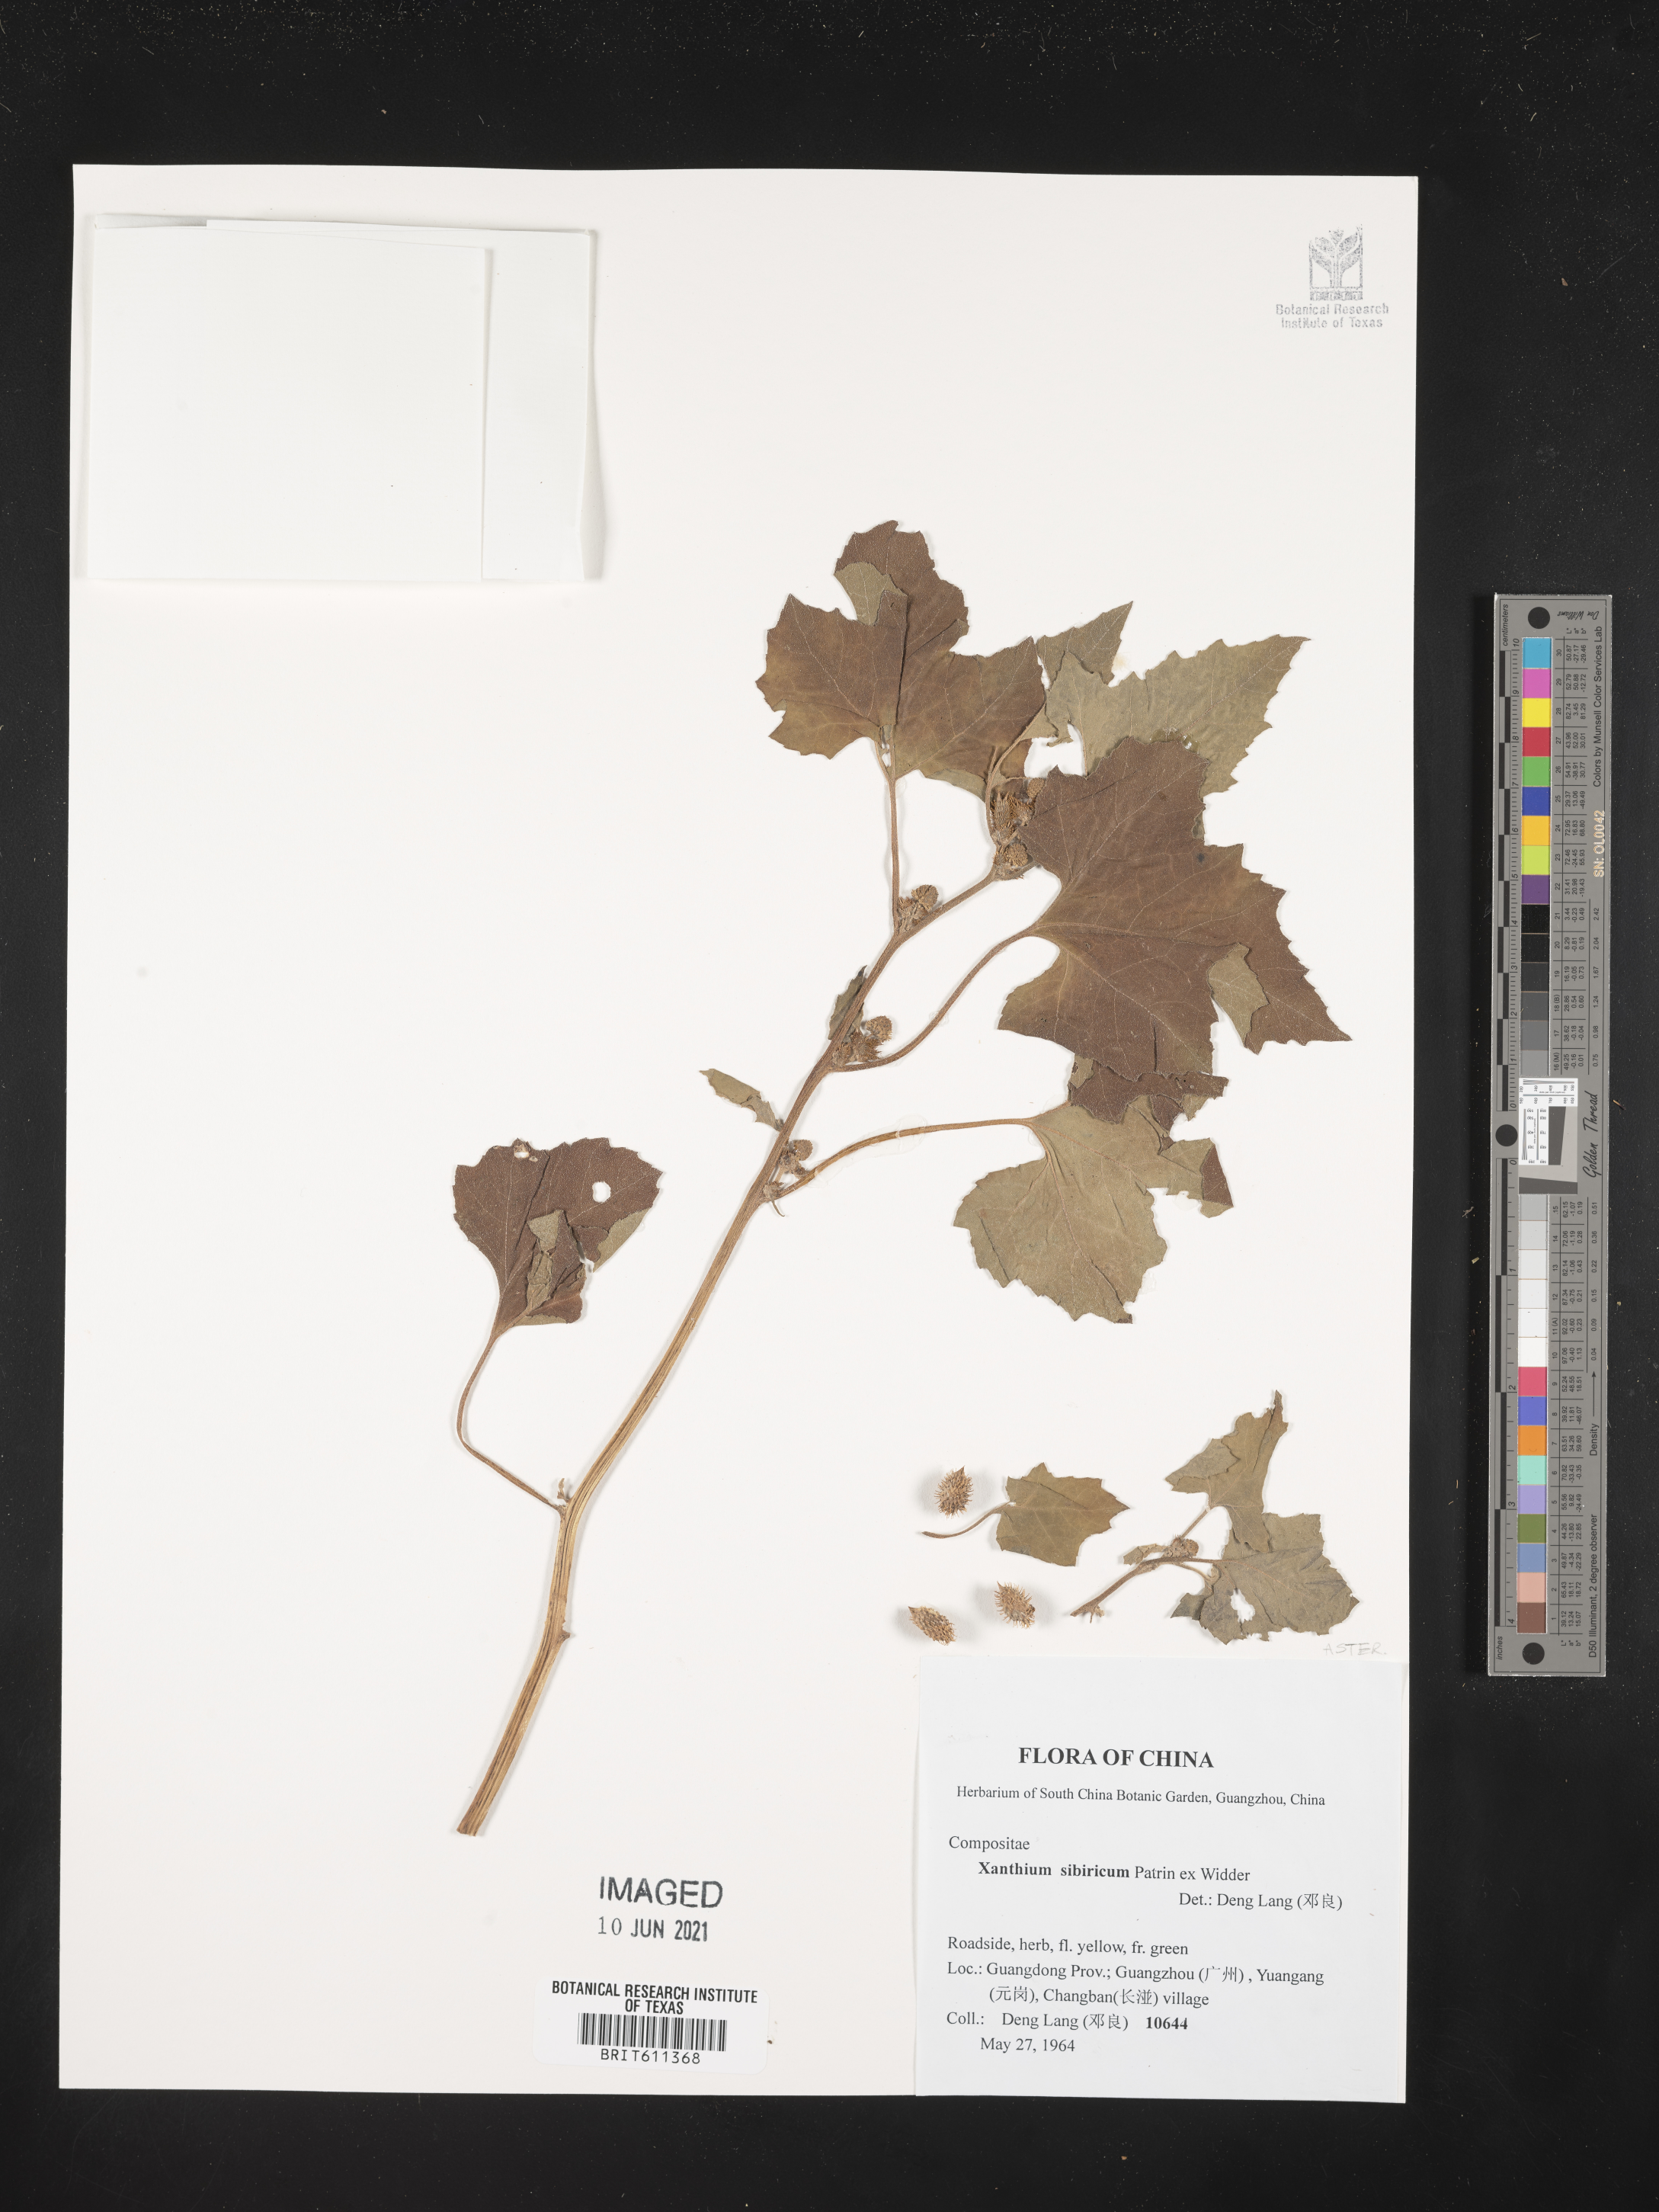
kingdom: Plantae
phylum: Tracheophyta
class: Magnoliopsida
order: Asterales
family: Asteraceae
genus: Xanthium
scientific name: Xanthium strumarium
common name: Rough cocklebur
